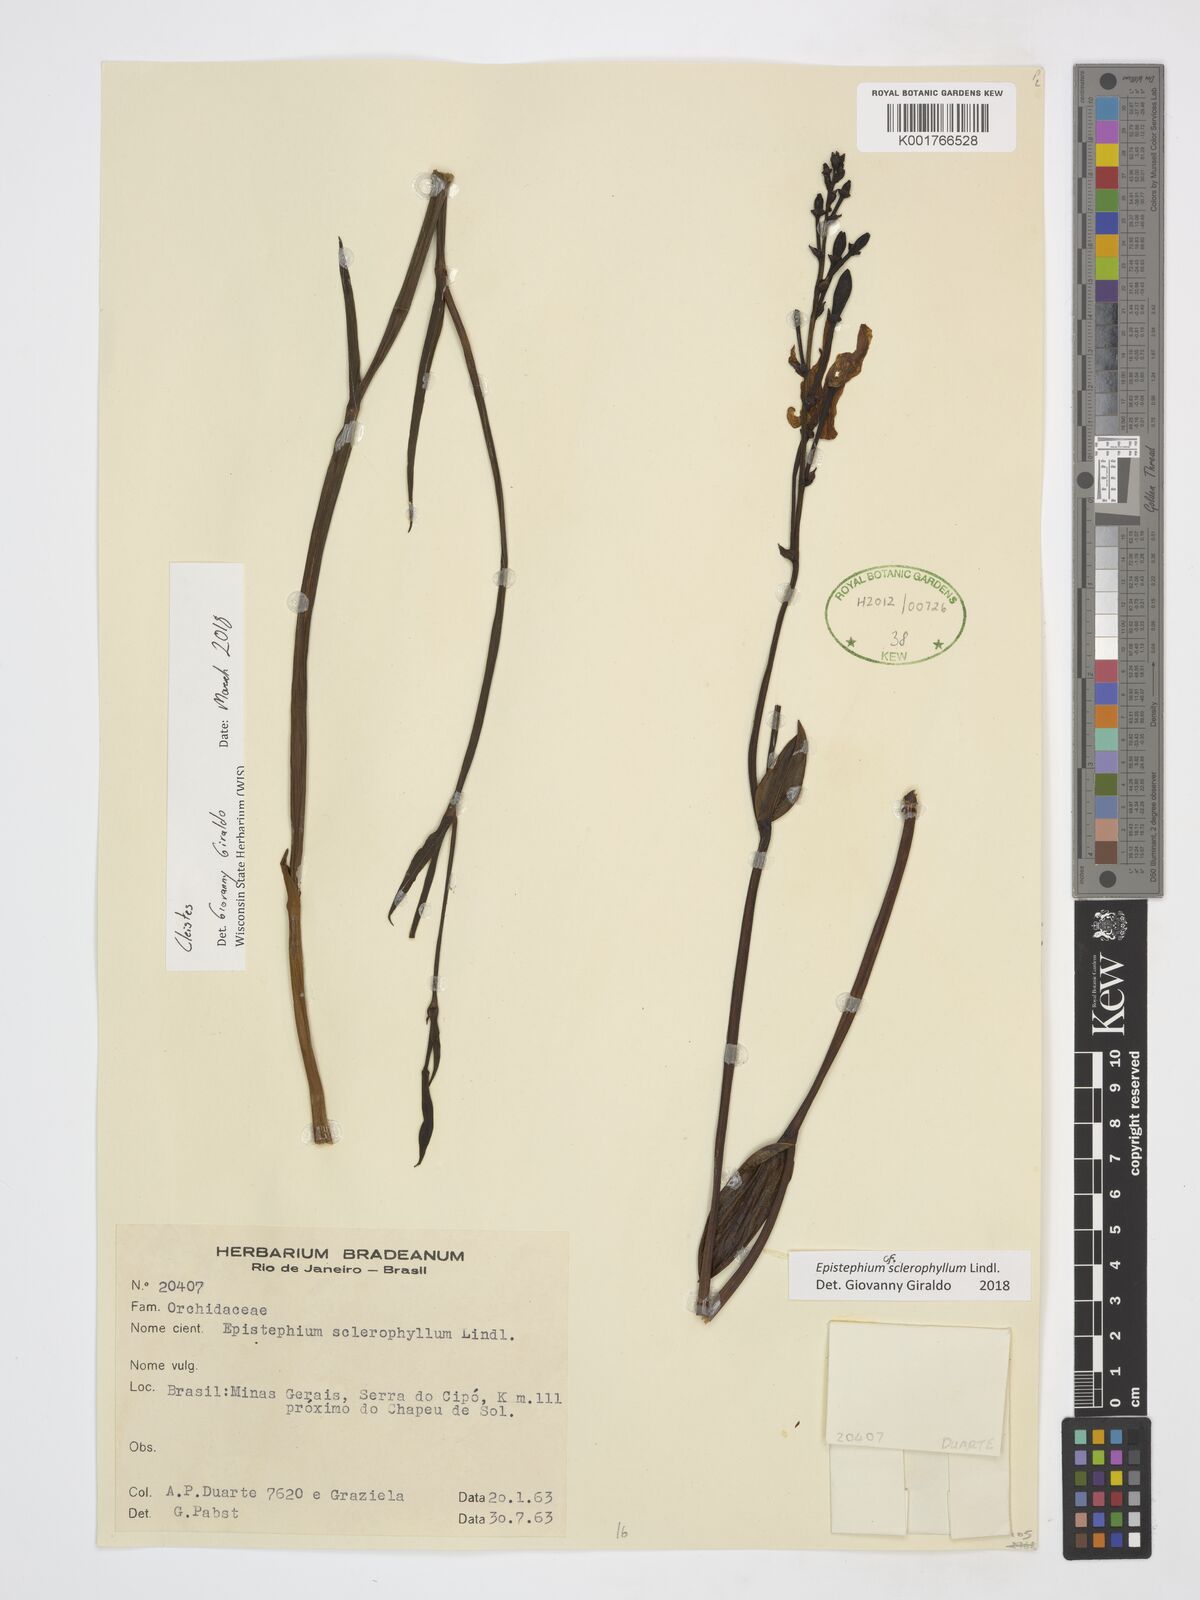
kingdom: Plantae
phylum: Tracheophyta
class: Liliopsida
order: Asparagales
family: Orchidaceae
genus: Epistephium
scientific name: Epistephium sclerophyllum
